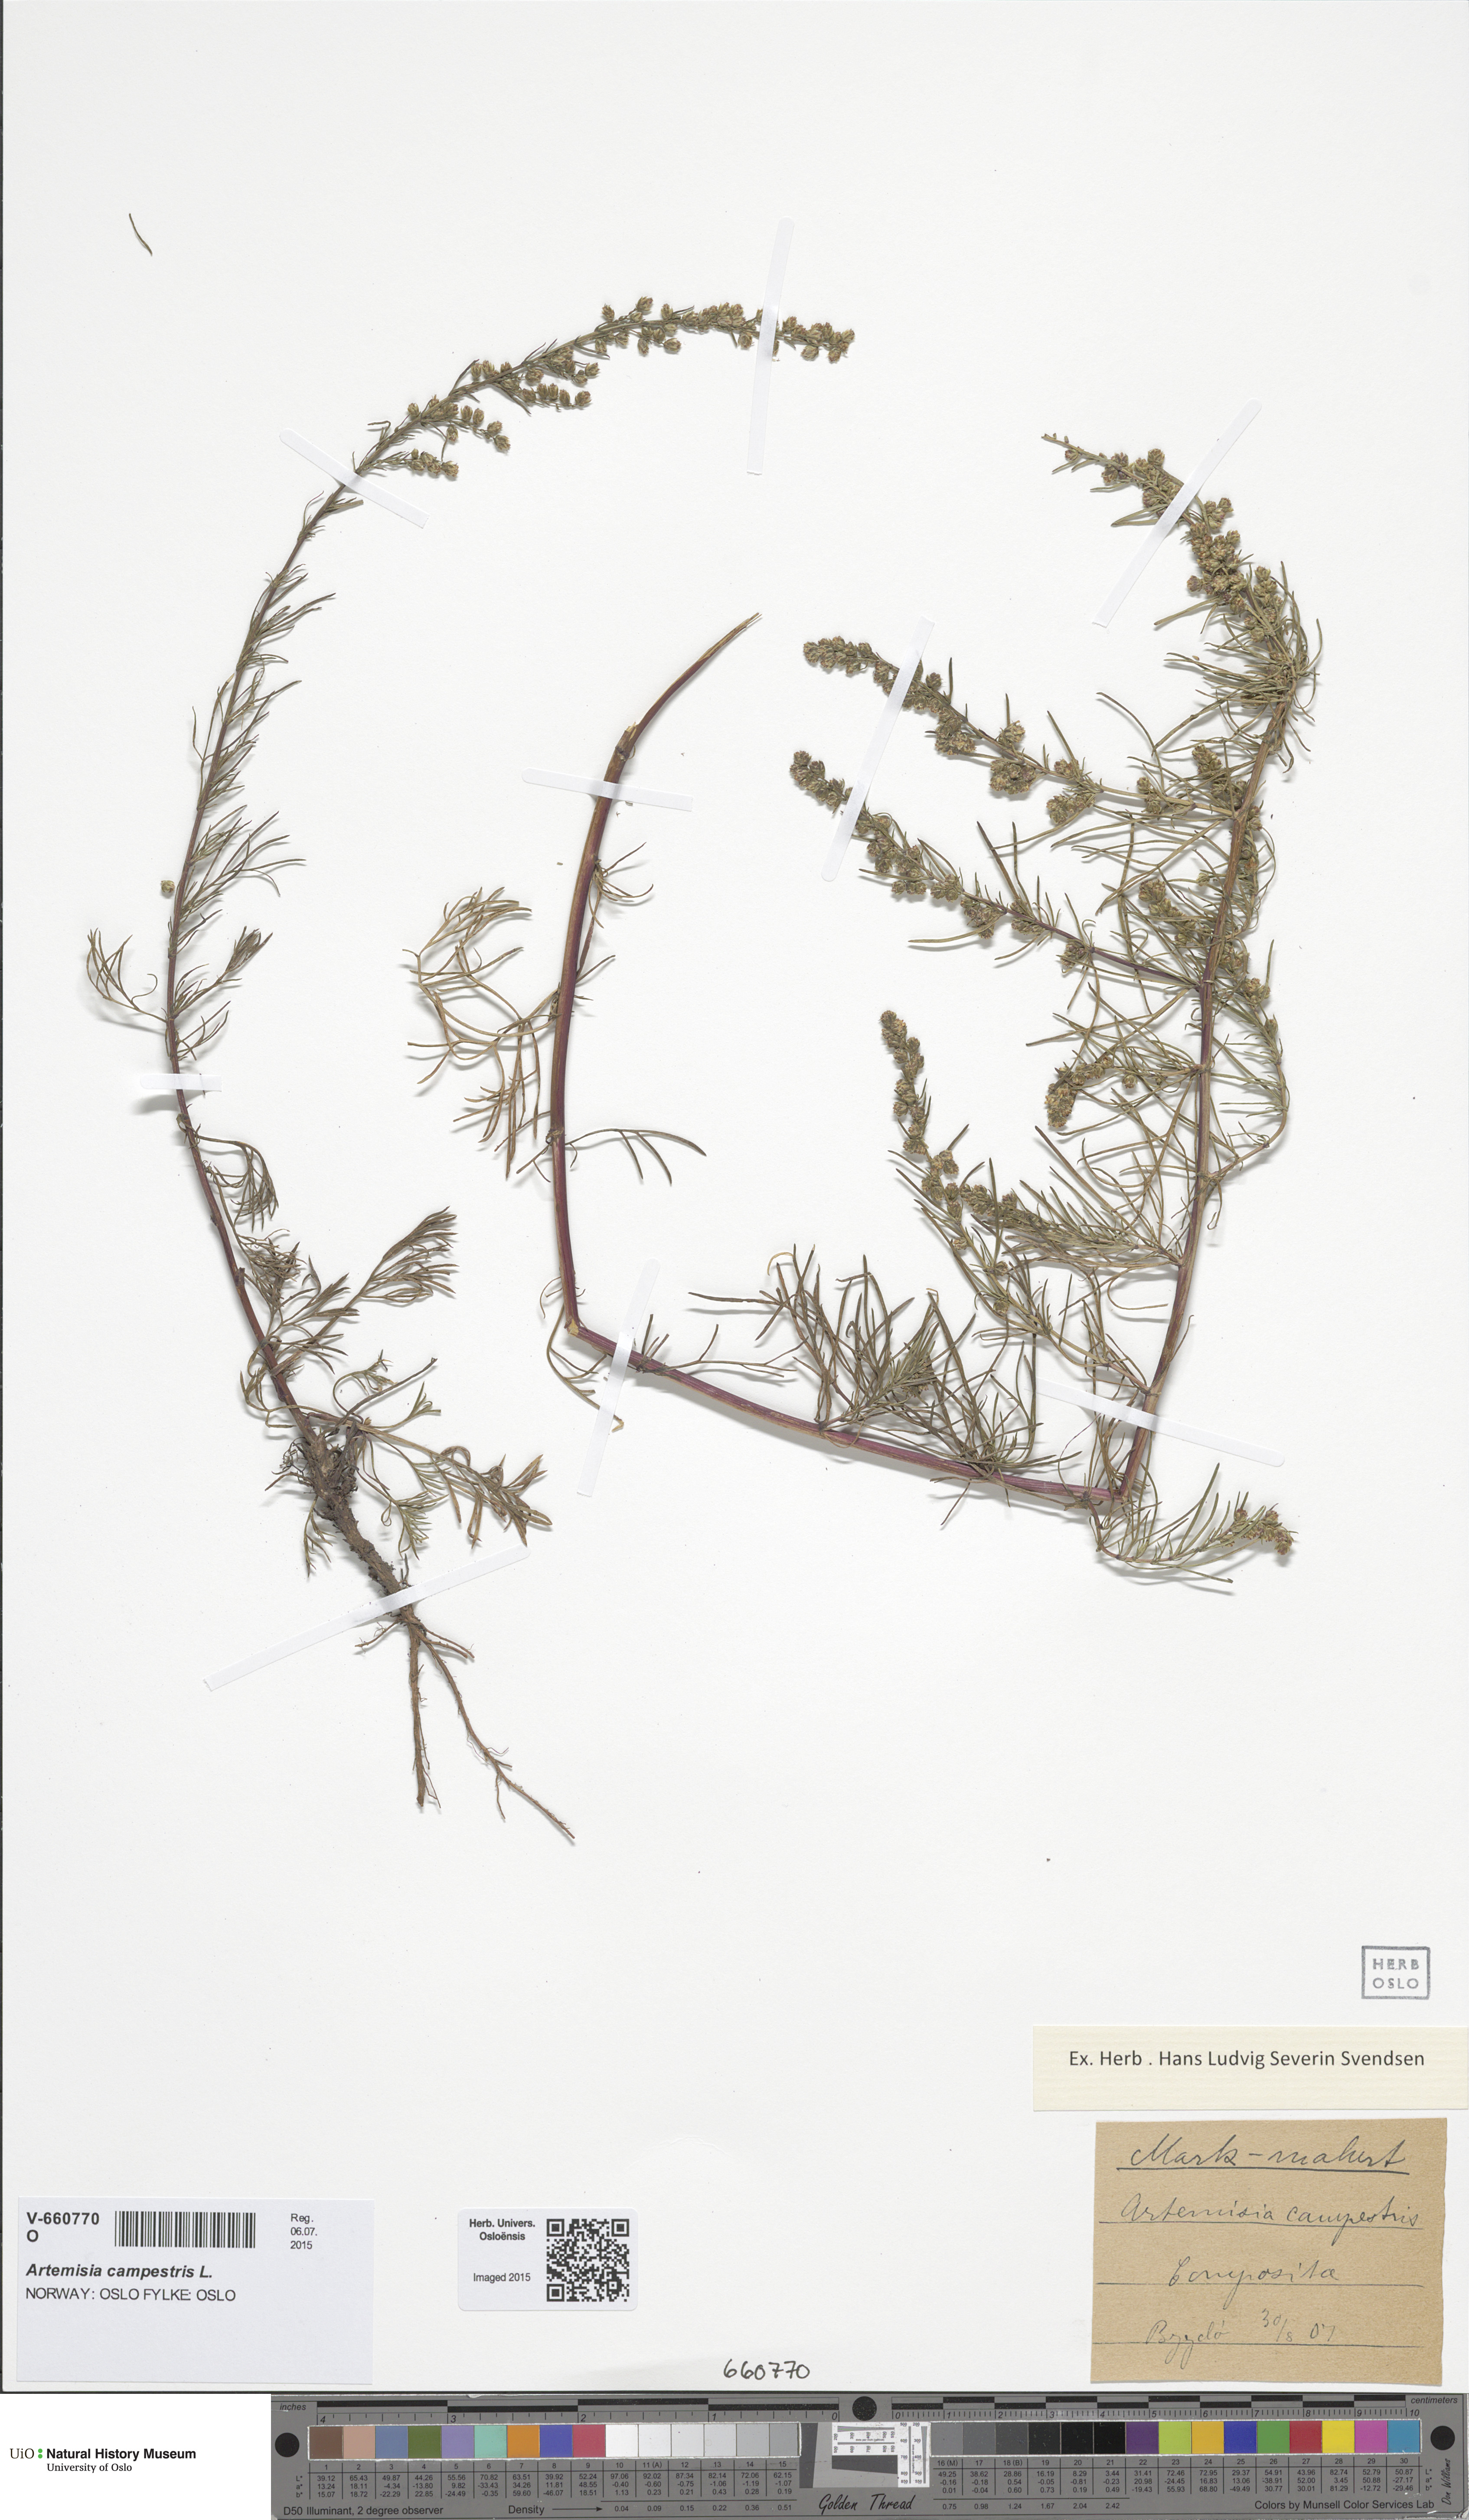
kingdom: Plantae
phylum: Tracheophyta
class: Magnoliopsida
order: Asterales
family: Asteraceae
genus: Artemisia
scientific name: Artemisia campestris
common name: Field wormwood
